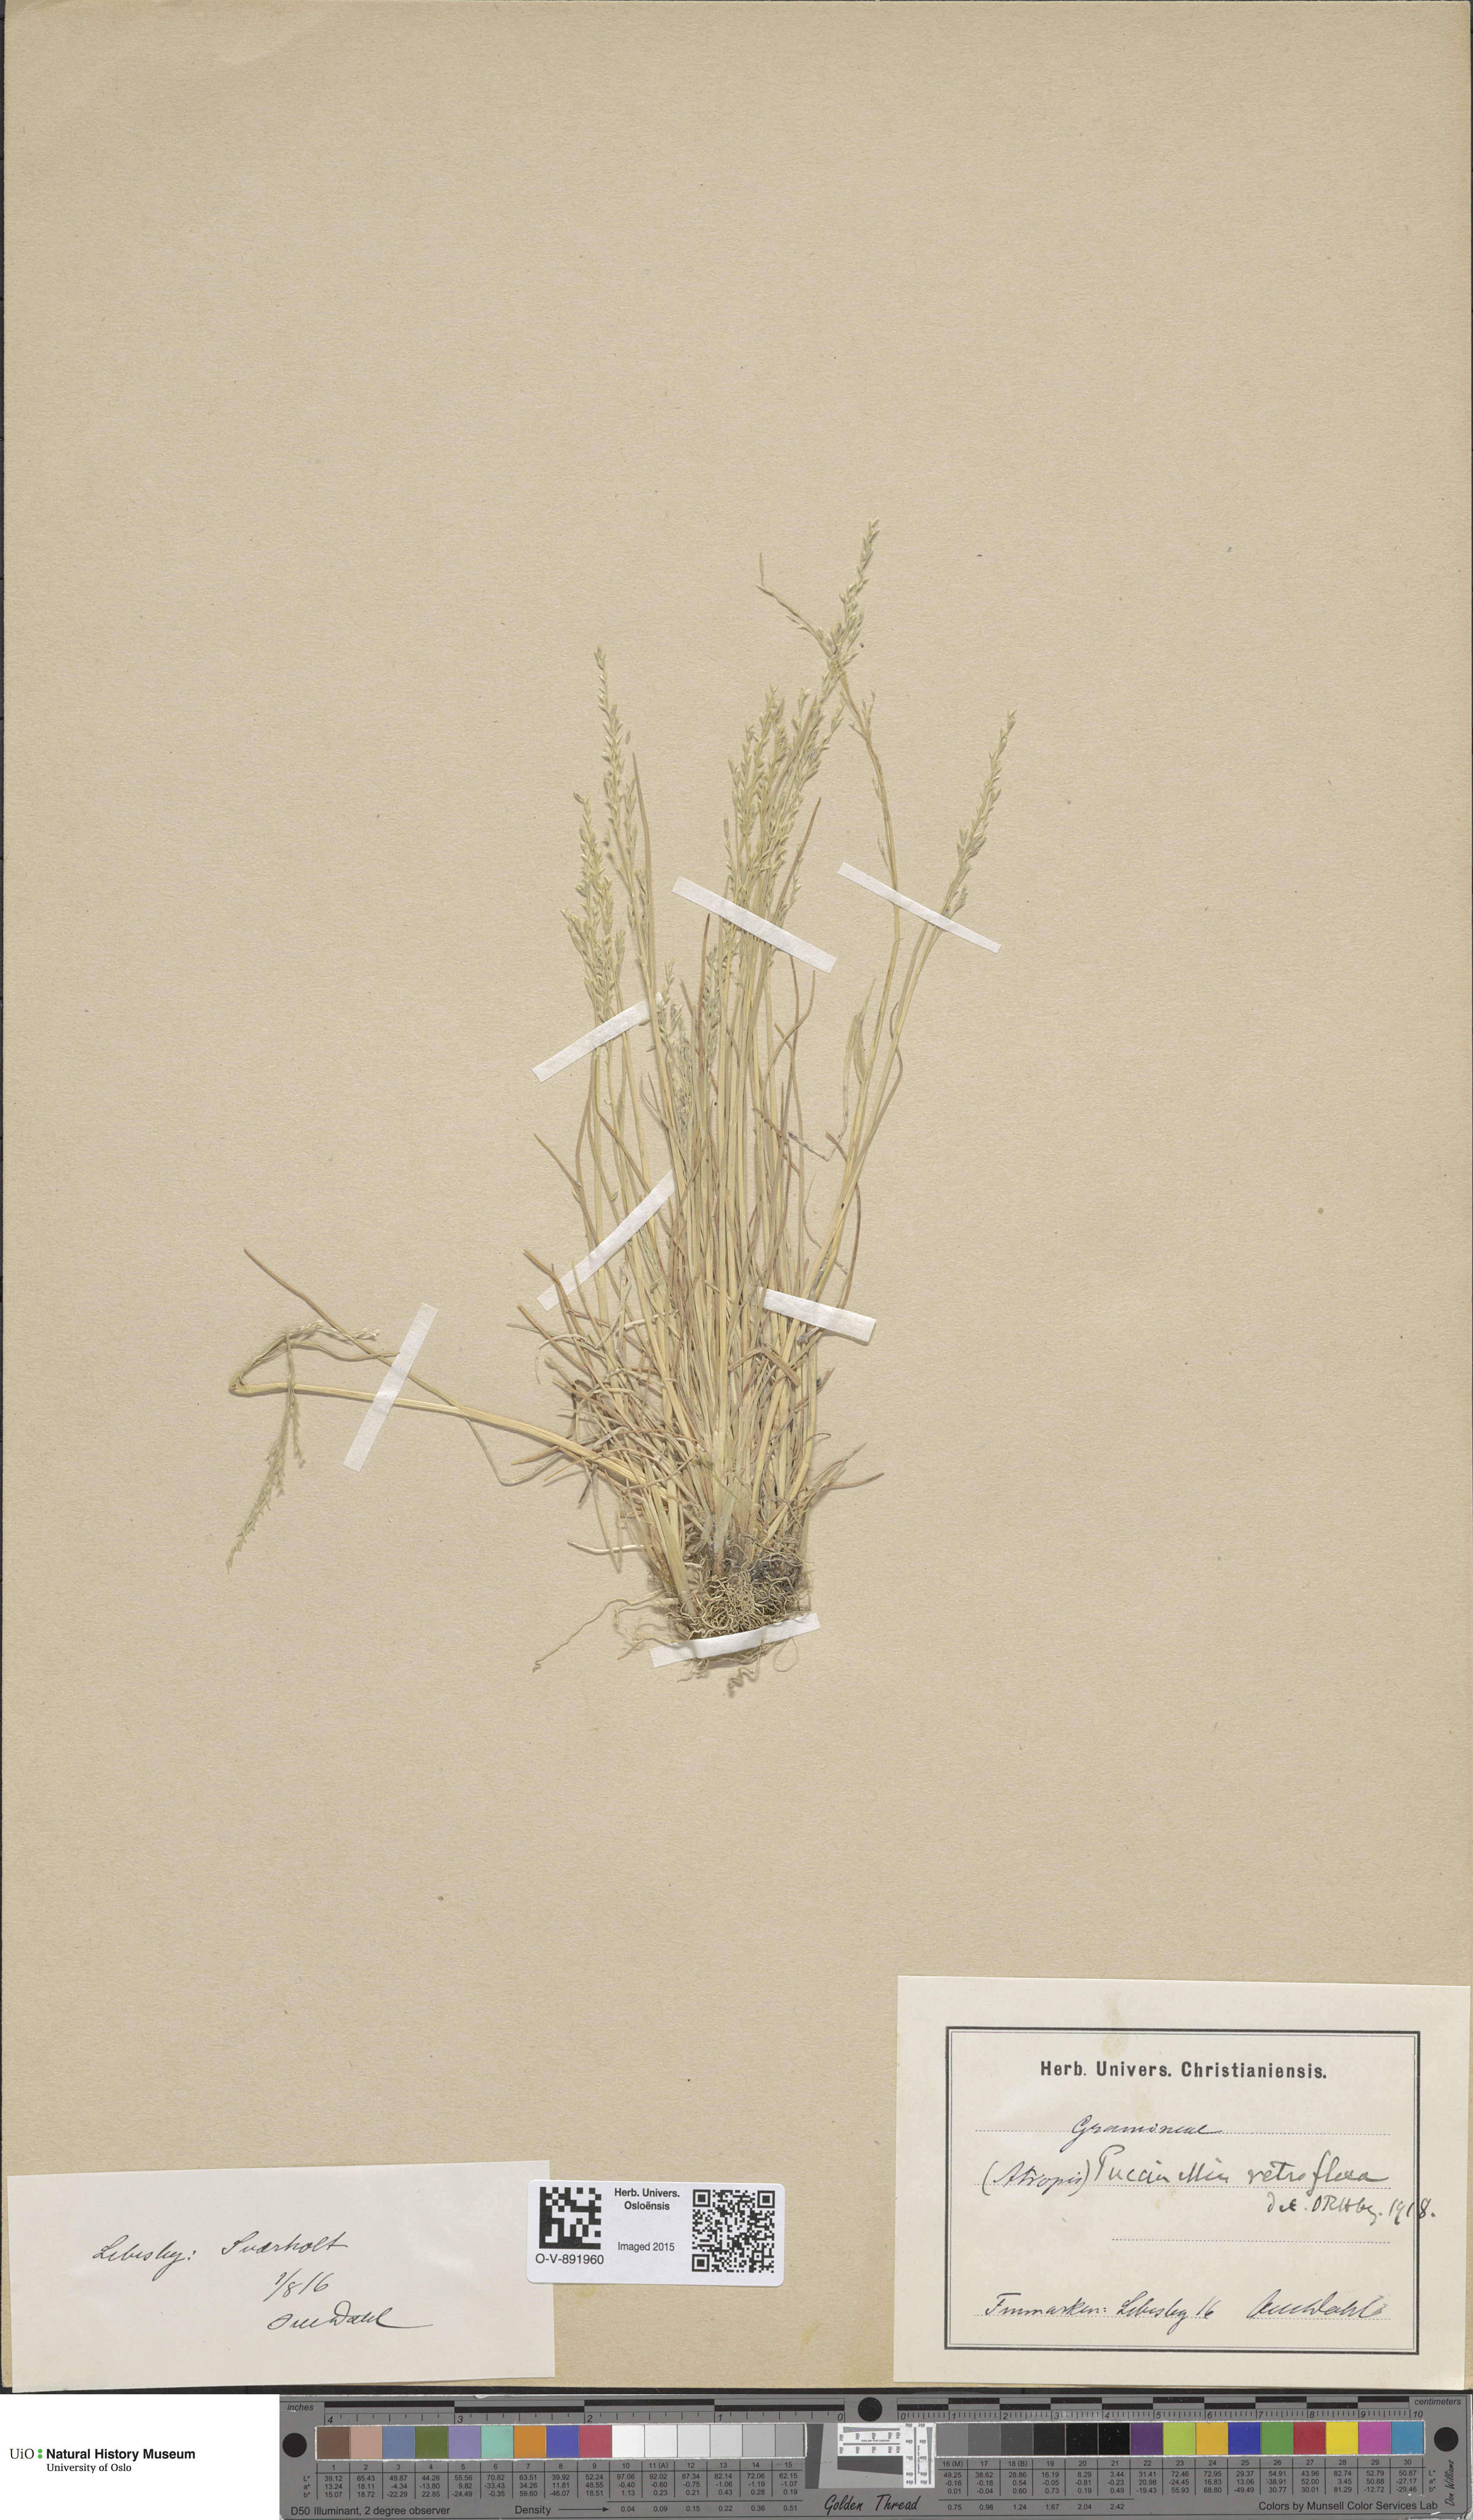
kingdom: Plantae
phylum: Tracheophyta
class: Liliopsida
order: Poales
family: Poaceae
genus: Puccinellia
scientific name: Puccinellia distans
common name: Weeping alkaligrass
